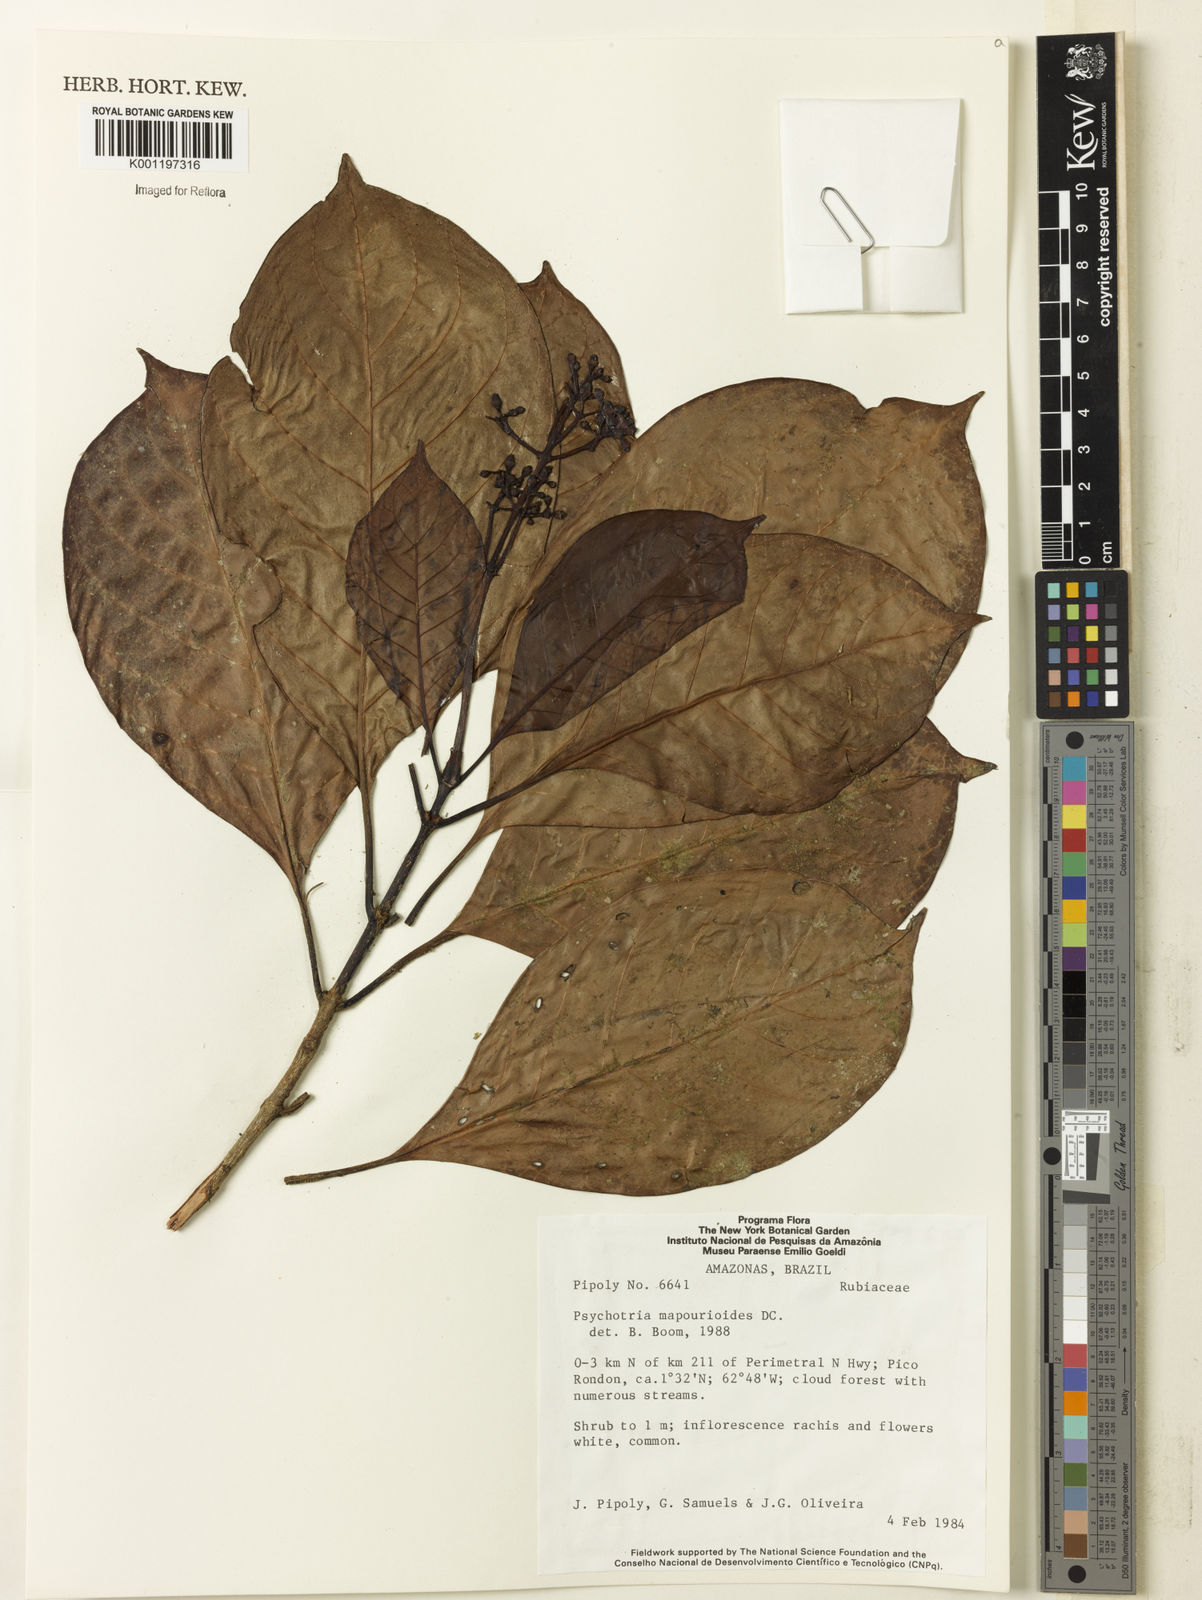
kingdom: Plantae
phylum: Tracheophyta
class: Magnoliopsida
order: Gentianales
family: Rubiaceae
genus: Psychotria
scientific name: Psychotria pedunculosa
